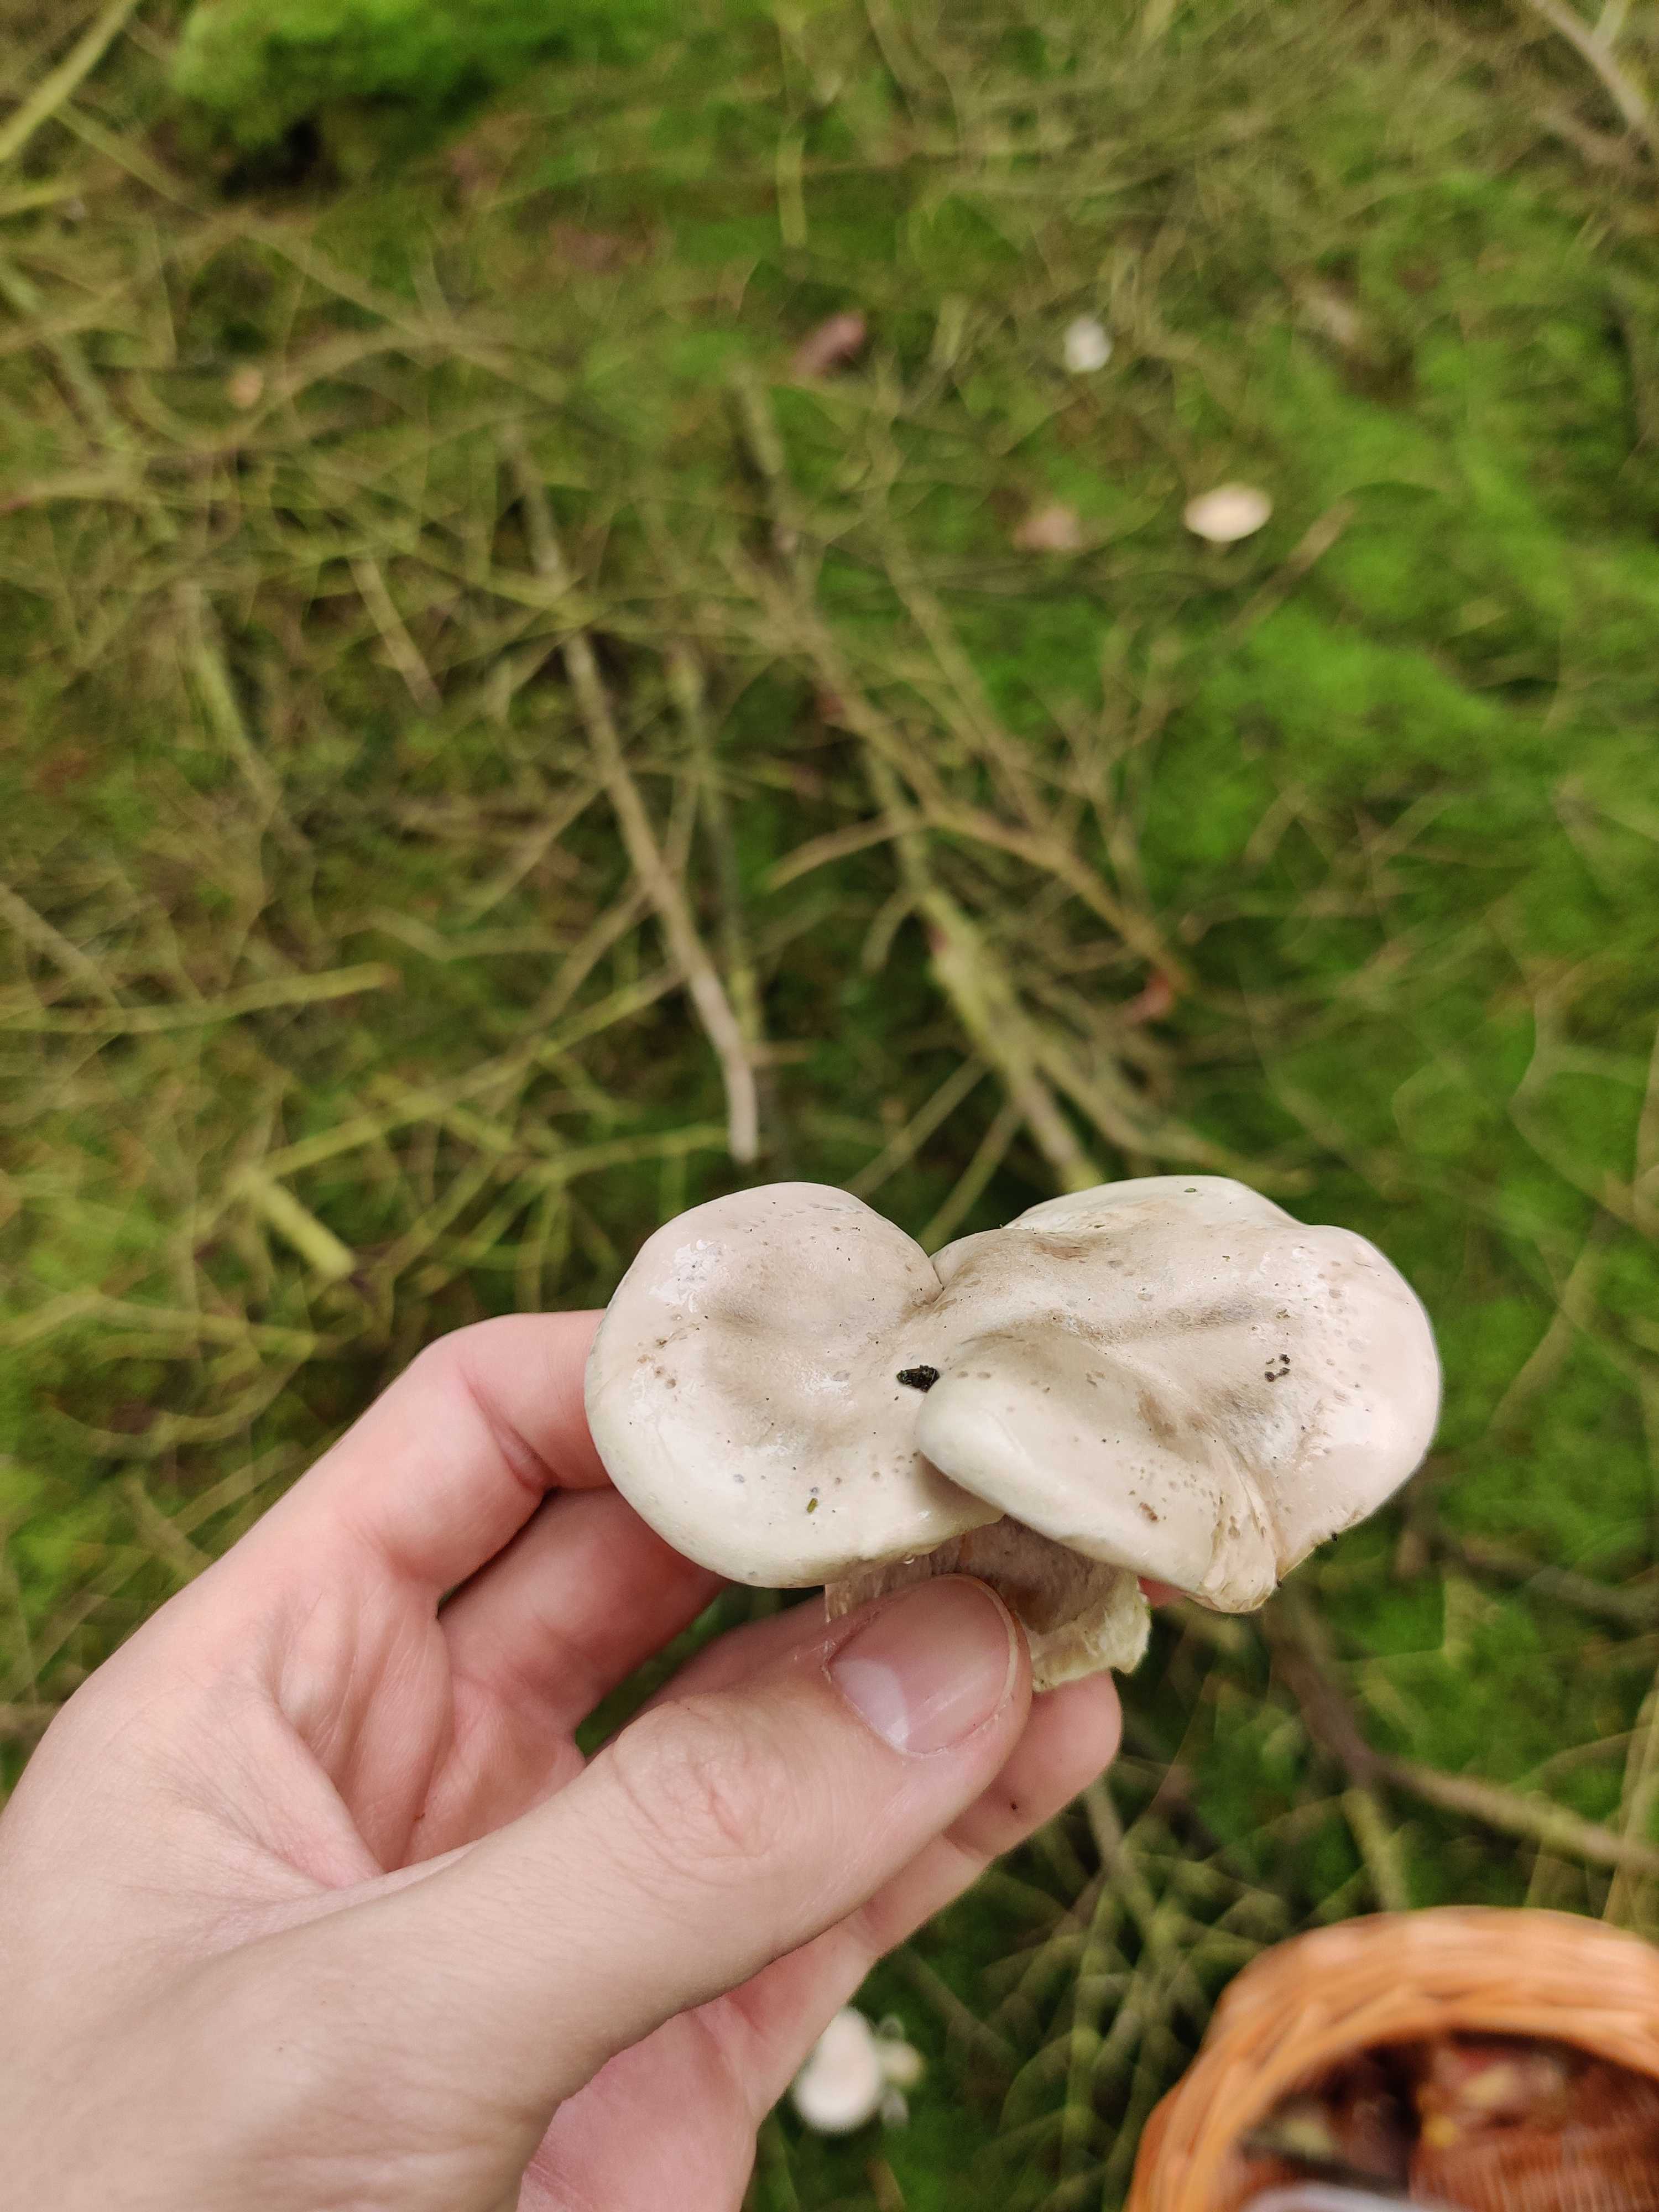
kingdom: Fungi
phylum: Basidiomycota
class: Agaricomycetes
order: Agaricales
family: Entolomataceae
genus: Clitopilus
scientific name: Clitopilus prunulus
